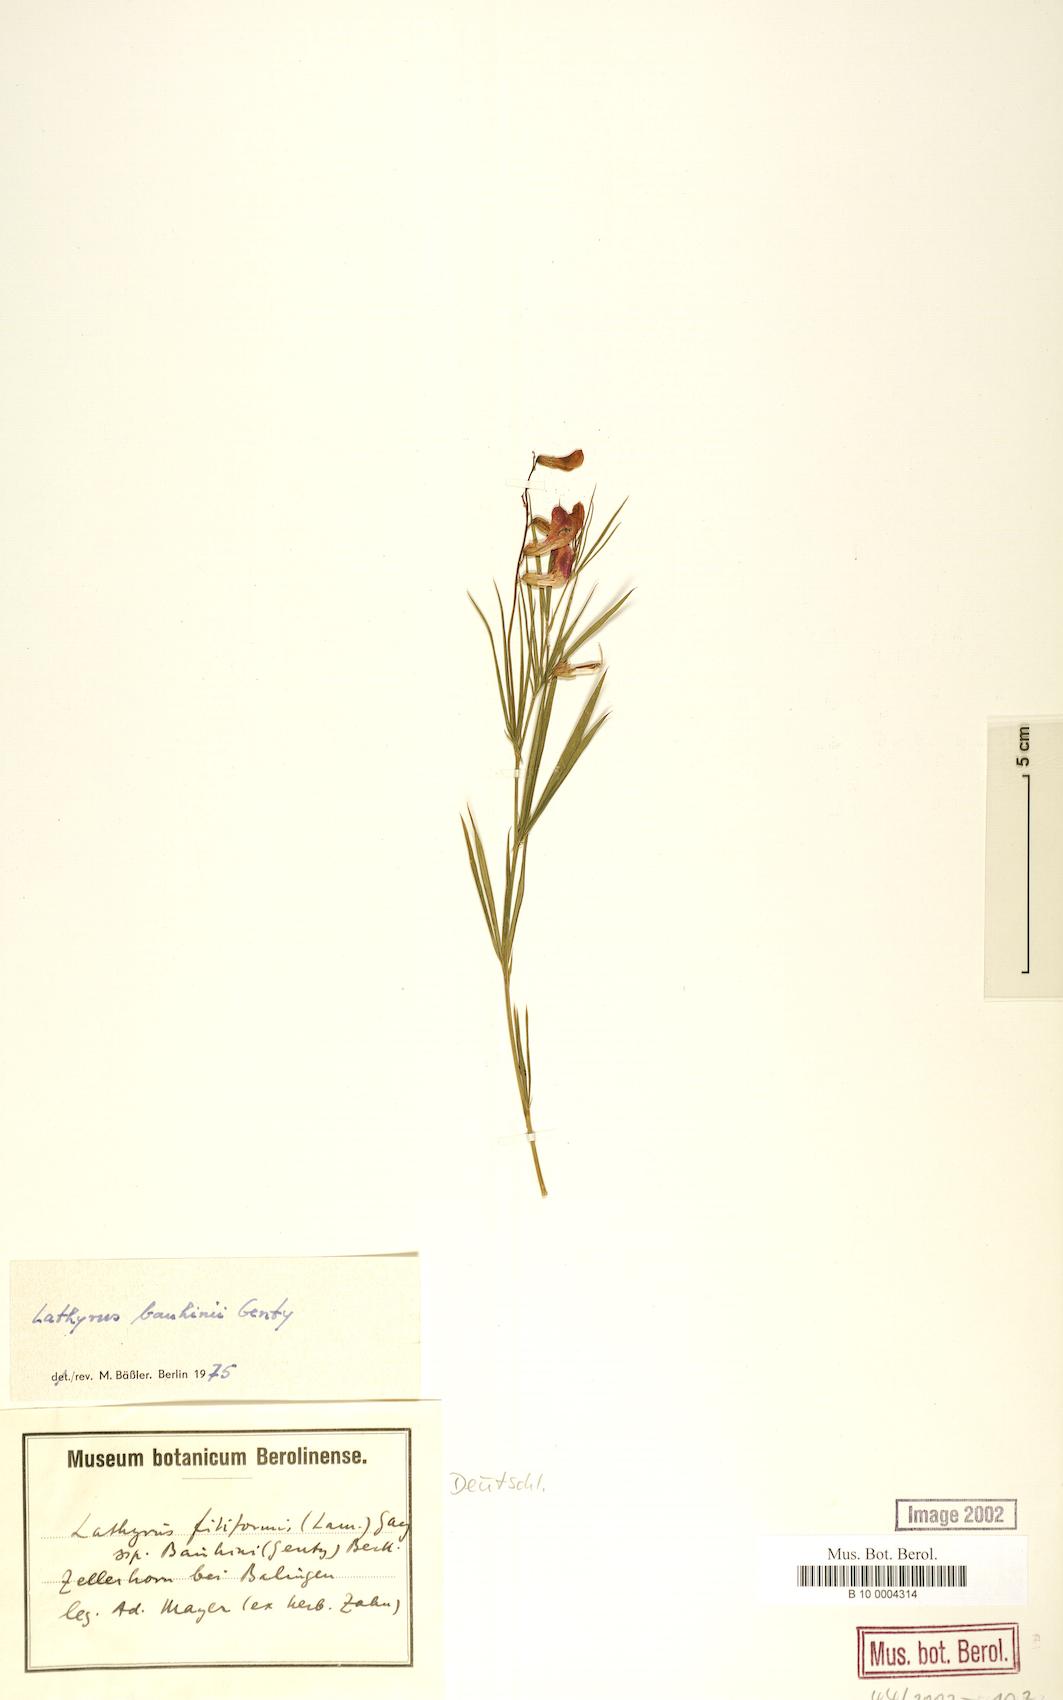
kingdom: Plantae
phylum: Tracheophyta
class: Magnoliopsida
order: Fabales
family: Fabaceae
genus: Lathyrus
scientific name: Lathyrus bauhini
